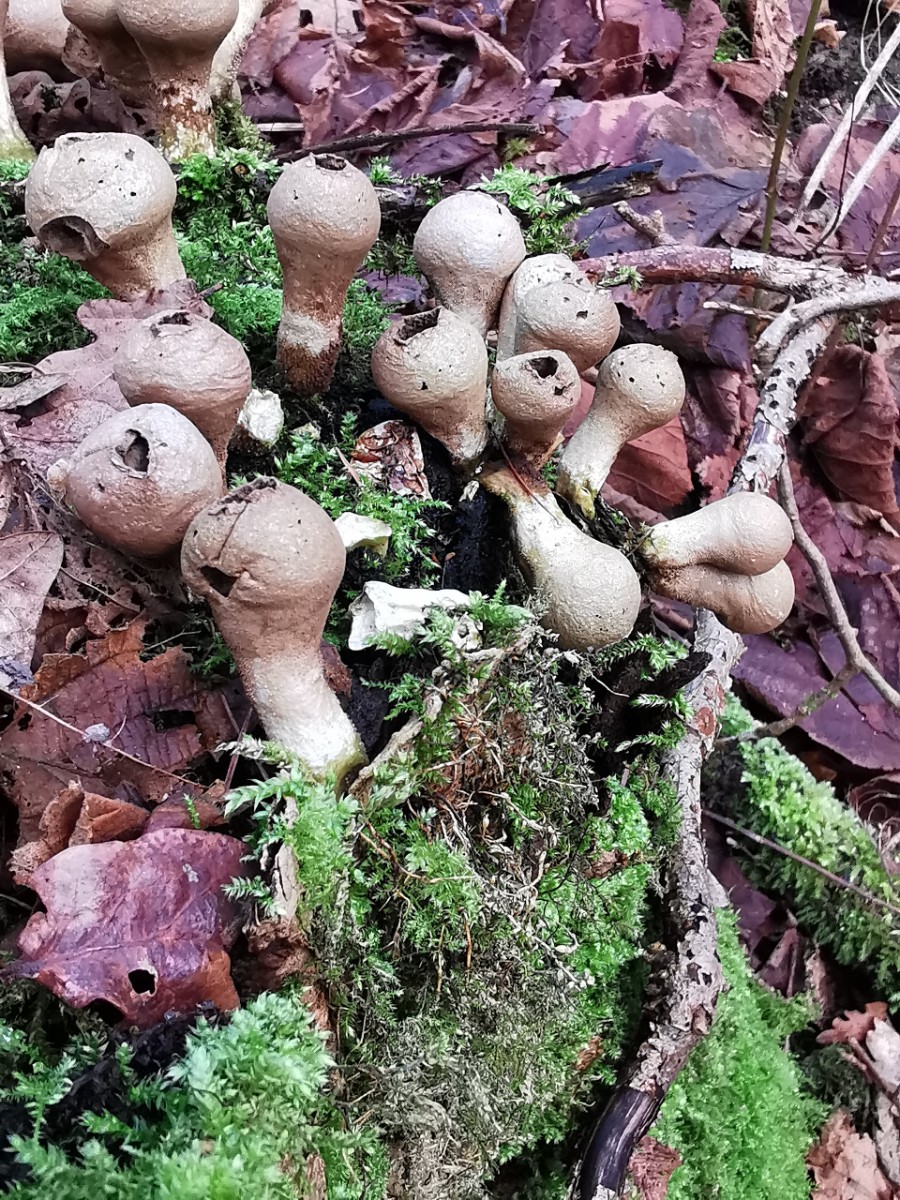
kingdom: Fungi
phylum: Basidiomycota
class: Agaricomycetes
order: Agaricales
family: Lycoperdaceae
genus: Apioperdon
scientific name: Apioperdon pyriforme
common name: pære-støvbold
